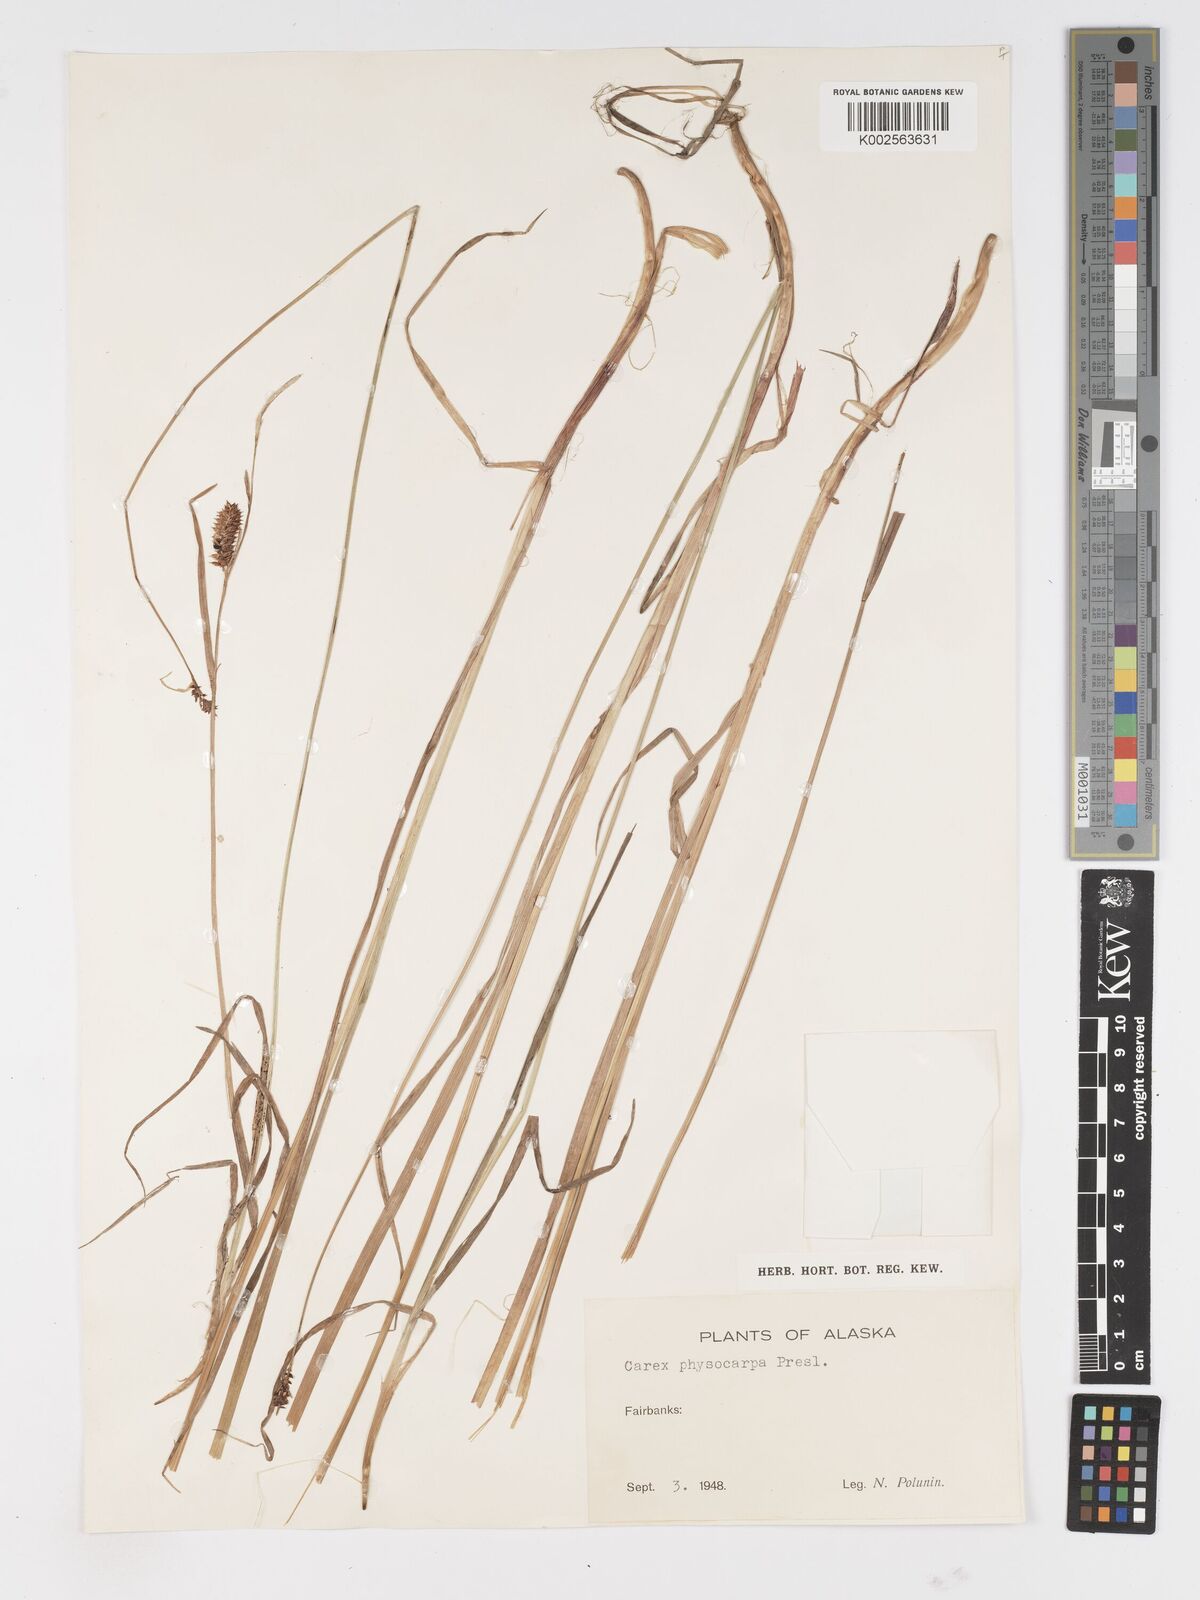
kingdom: Plantae
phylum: Tracheophyta
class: Liliopsida
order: Poales
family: Cyperaceae
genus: Carex
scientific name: Carex saxatilis
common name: Russet sedge
